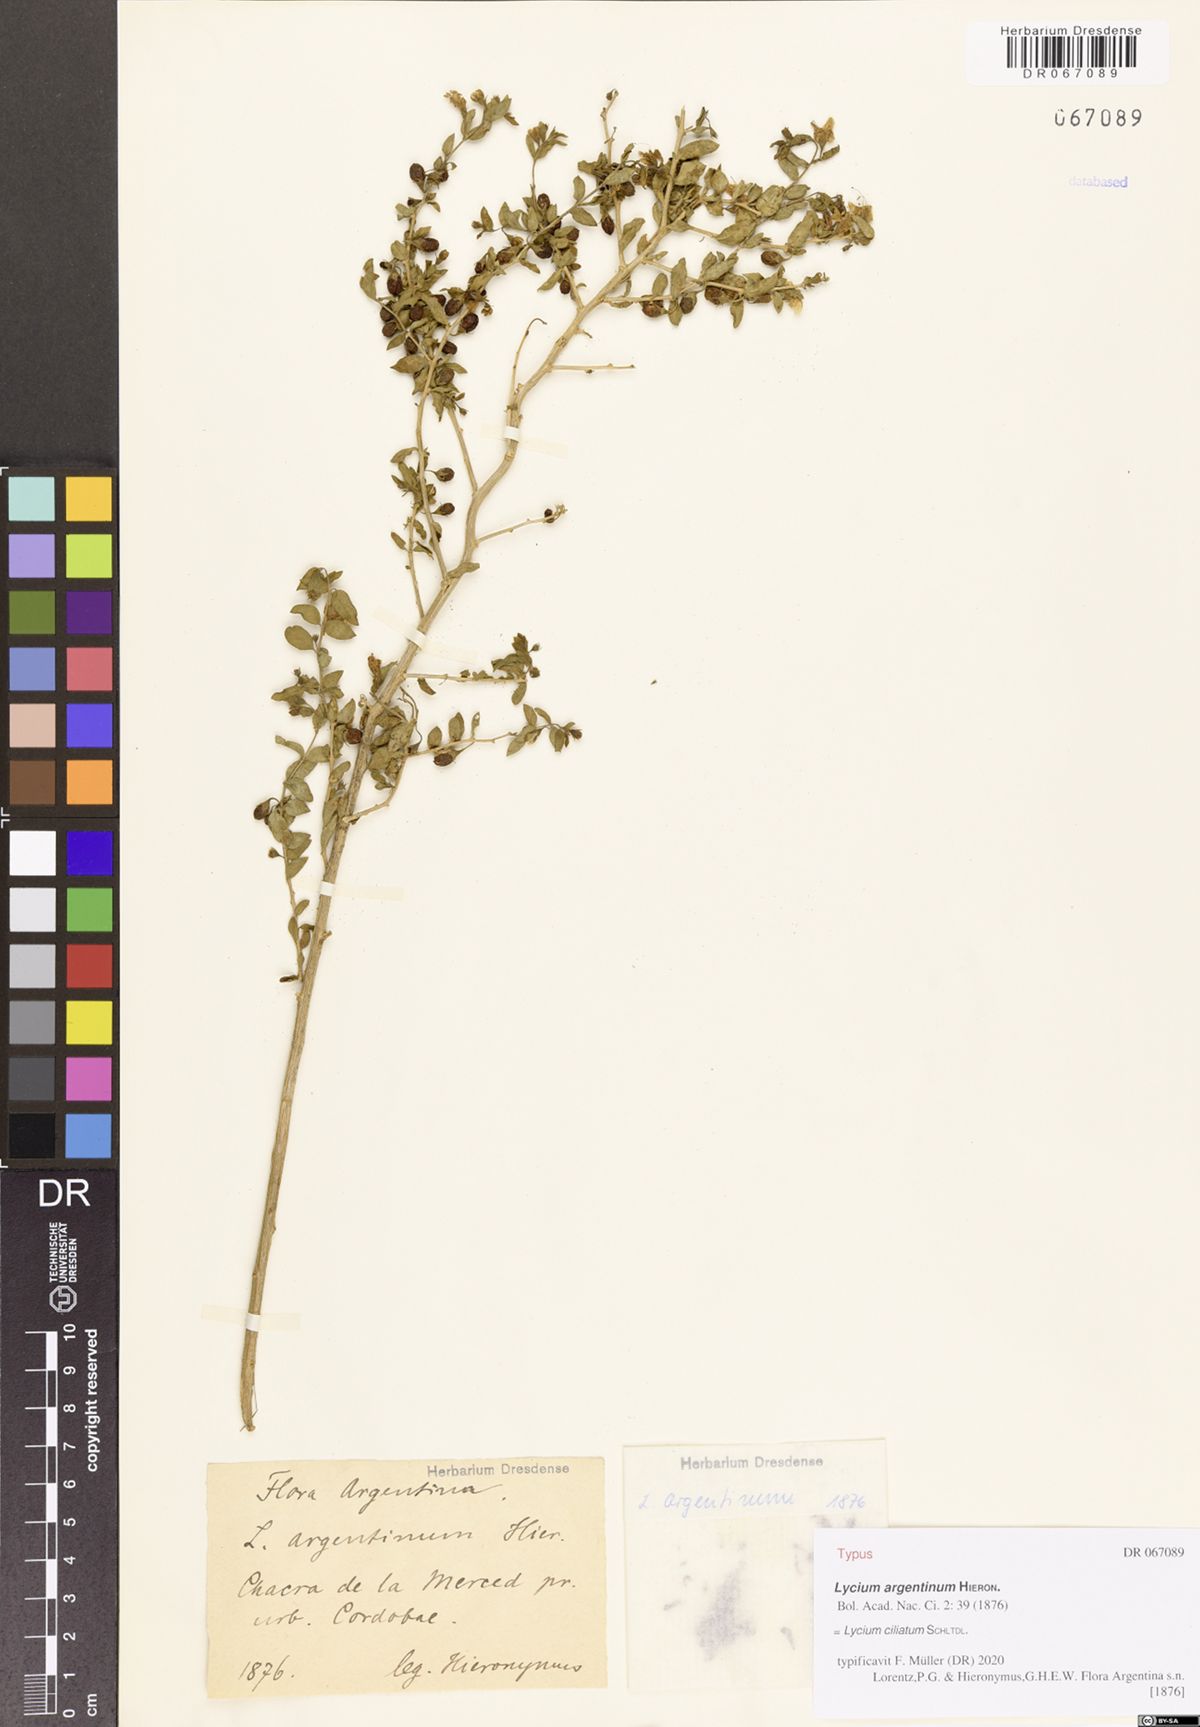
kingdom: Plantae
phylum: Tracheophyta
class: Magnoliopsida
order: Solanales
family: Solanaceae
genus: Lycium
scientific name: Lycium ciliatum
